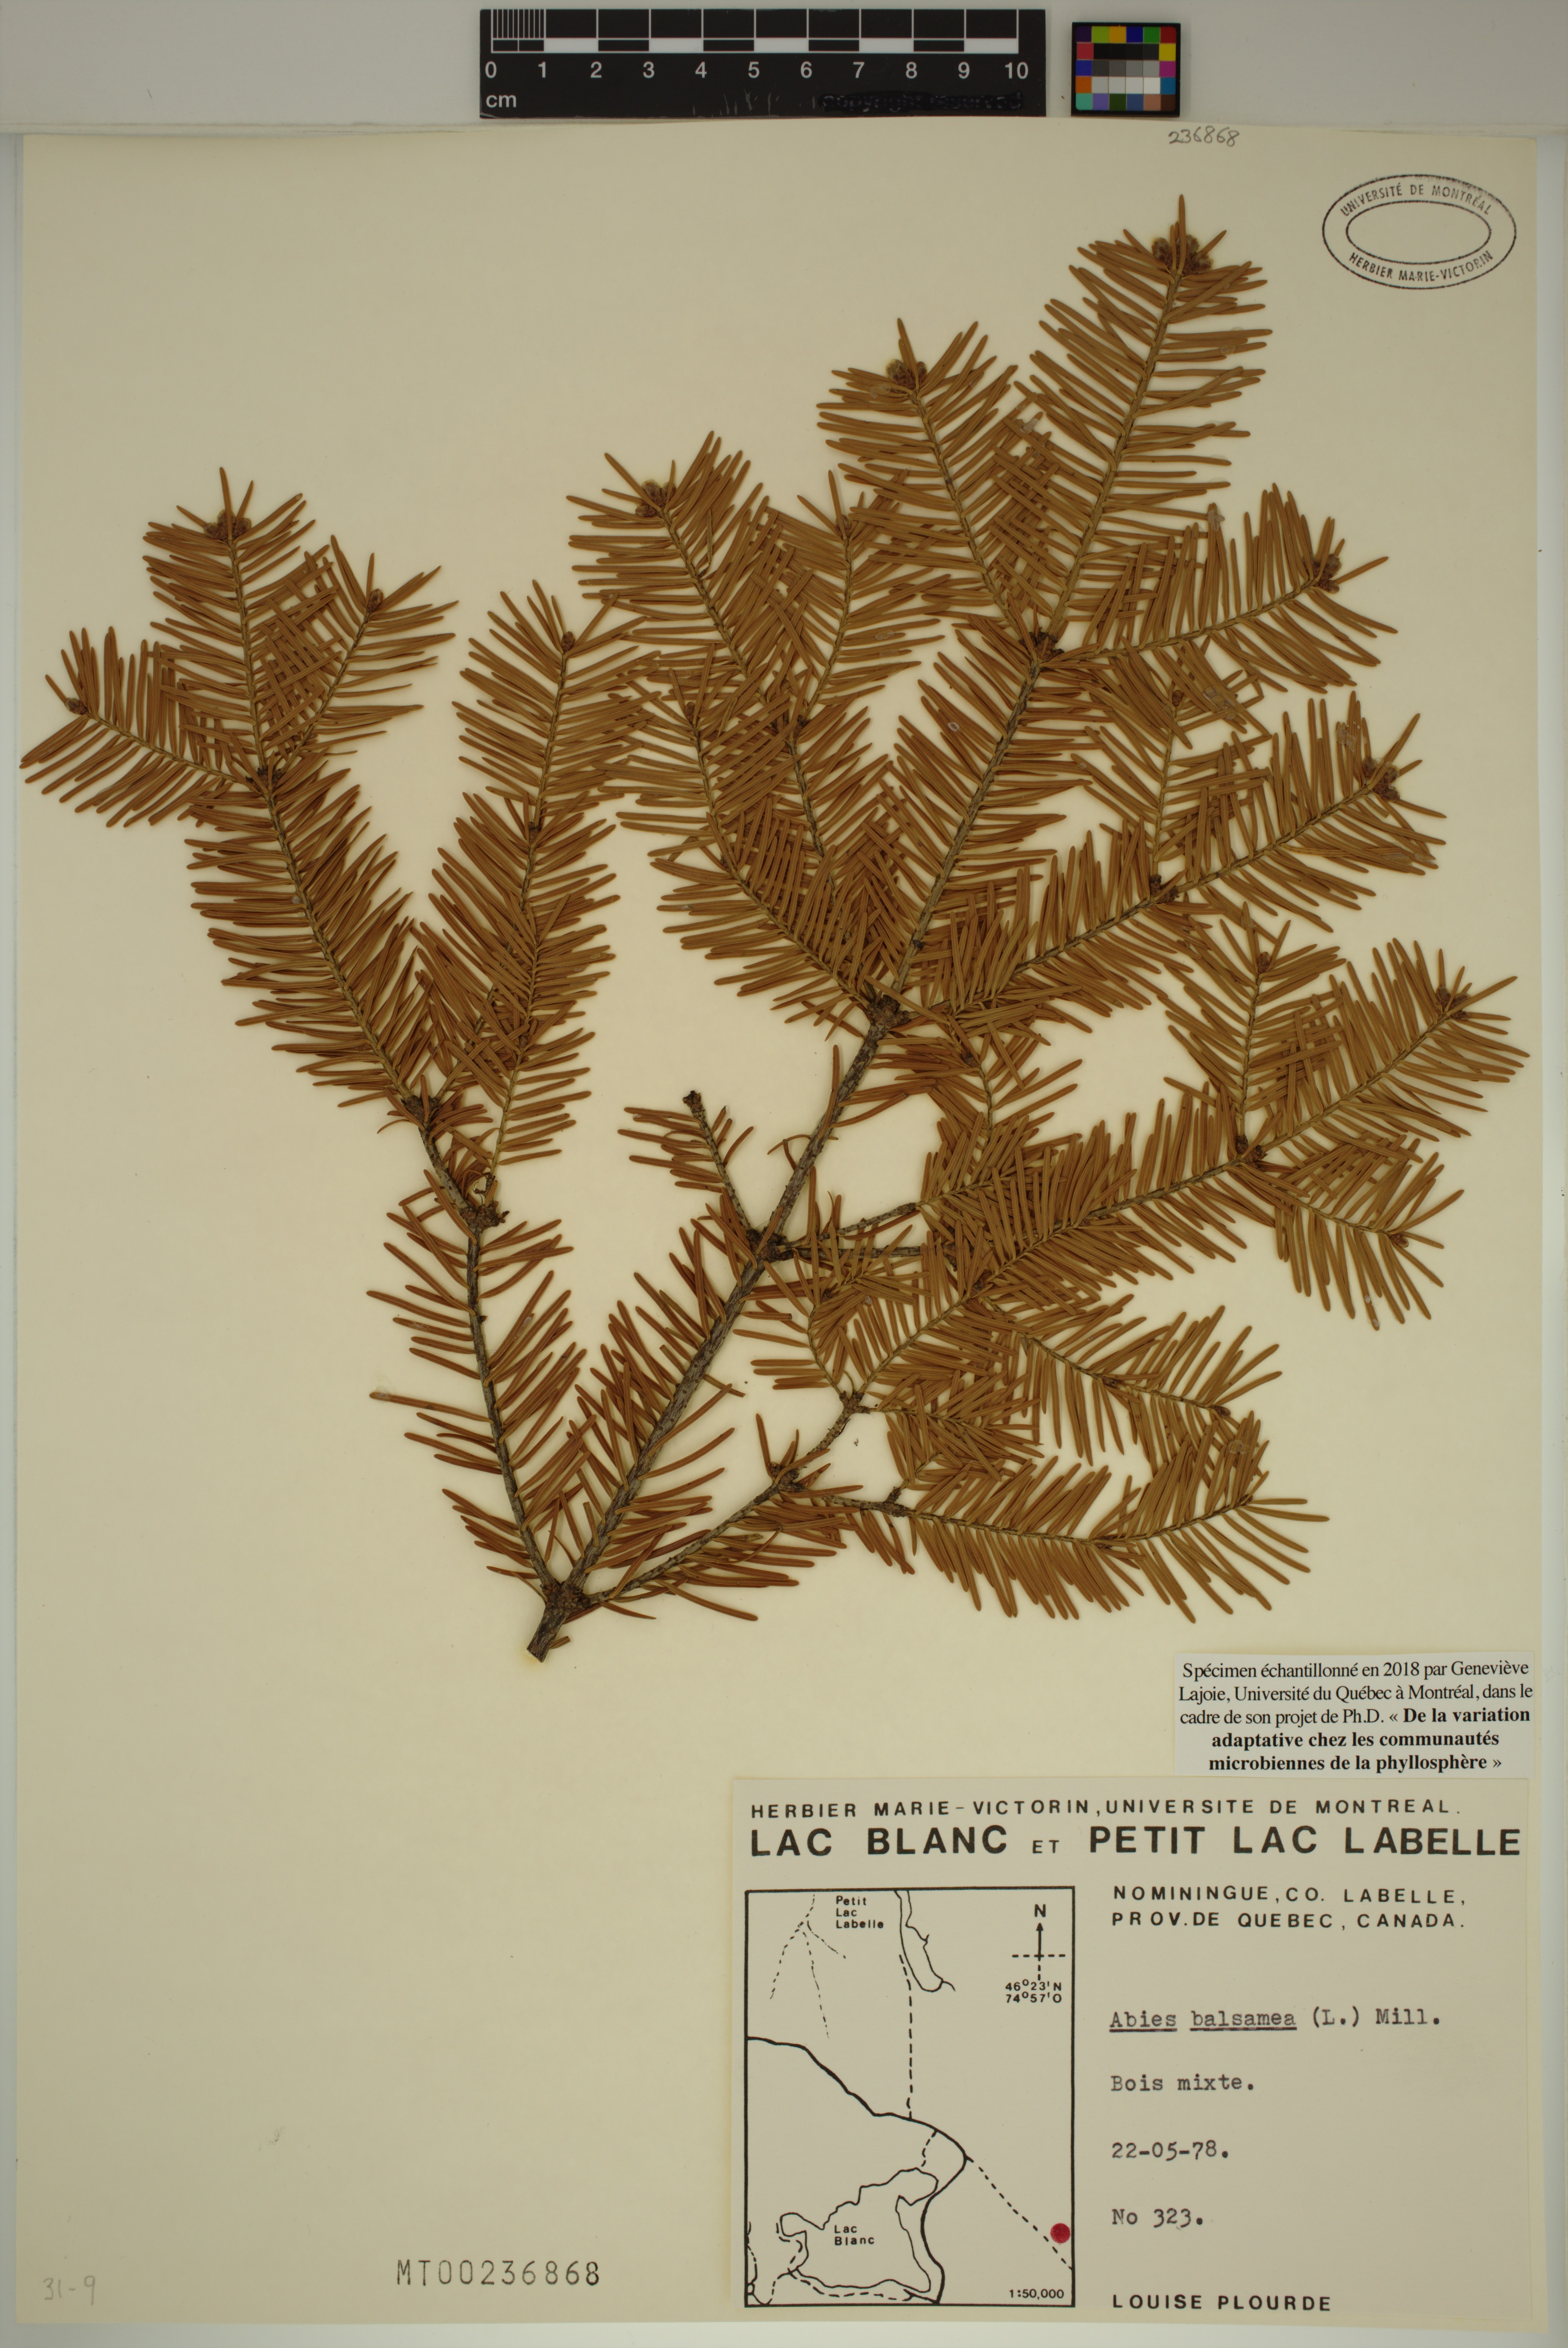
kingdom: Plantae
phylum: Tracheophyta
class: Pinopsida
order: Pinales
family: Pinaceae
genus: Abies
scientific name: Abies balsamea
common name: Balsam fir
